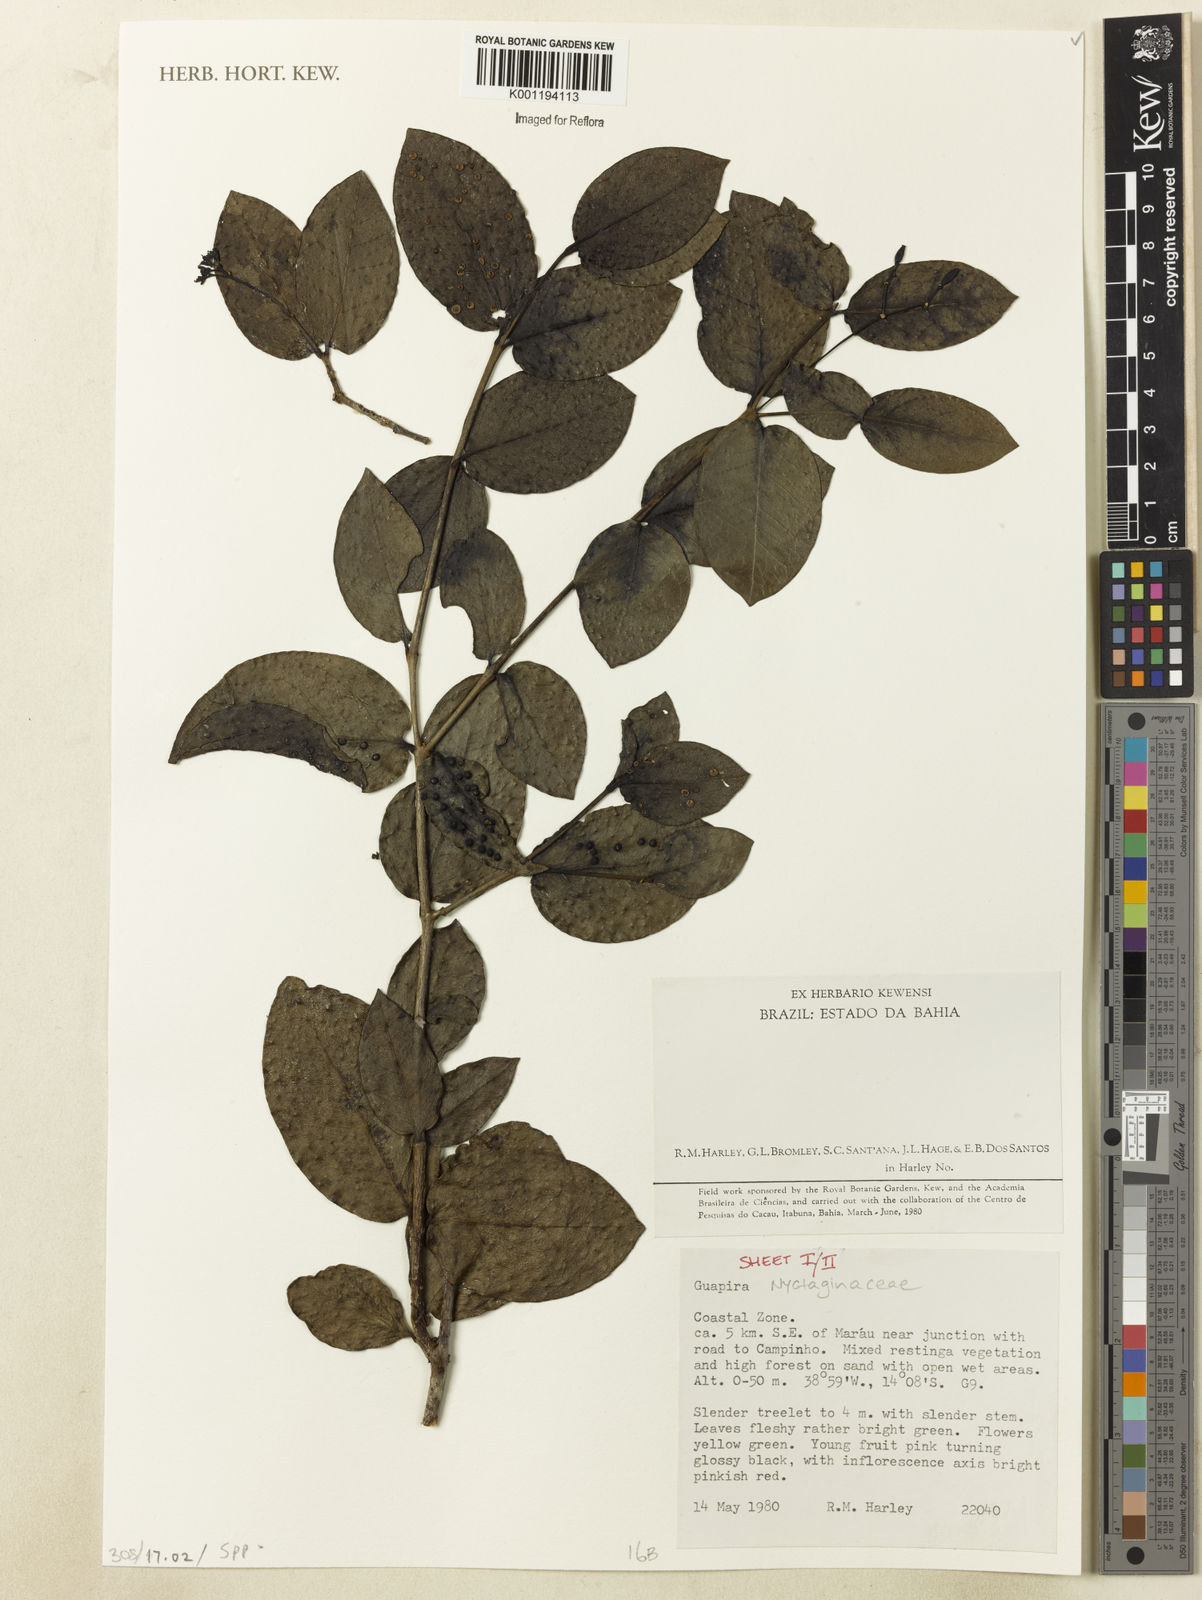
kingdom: Plantae
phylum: Tracheophyta
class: Magnoliopsida
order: Caryophyllales
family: Nyctaginaceae
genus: Guapira
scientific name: Guapira
